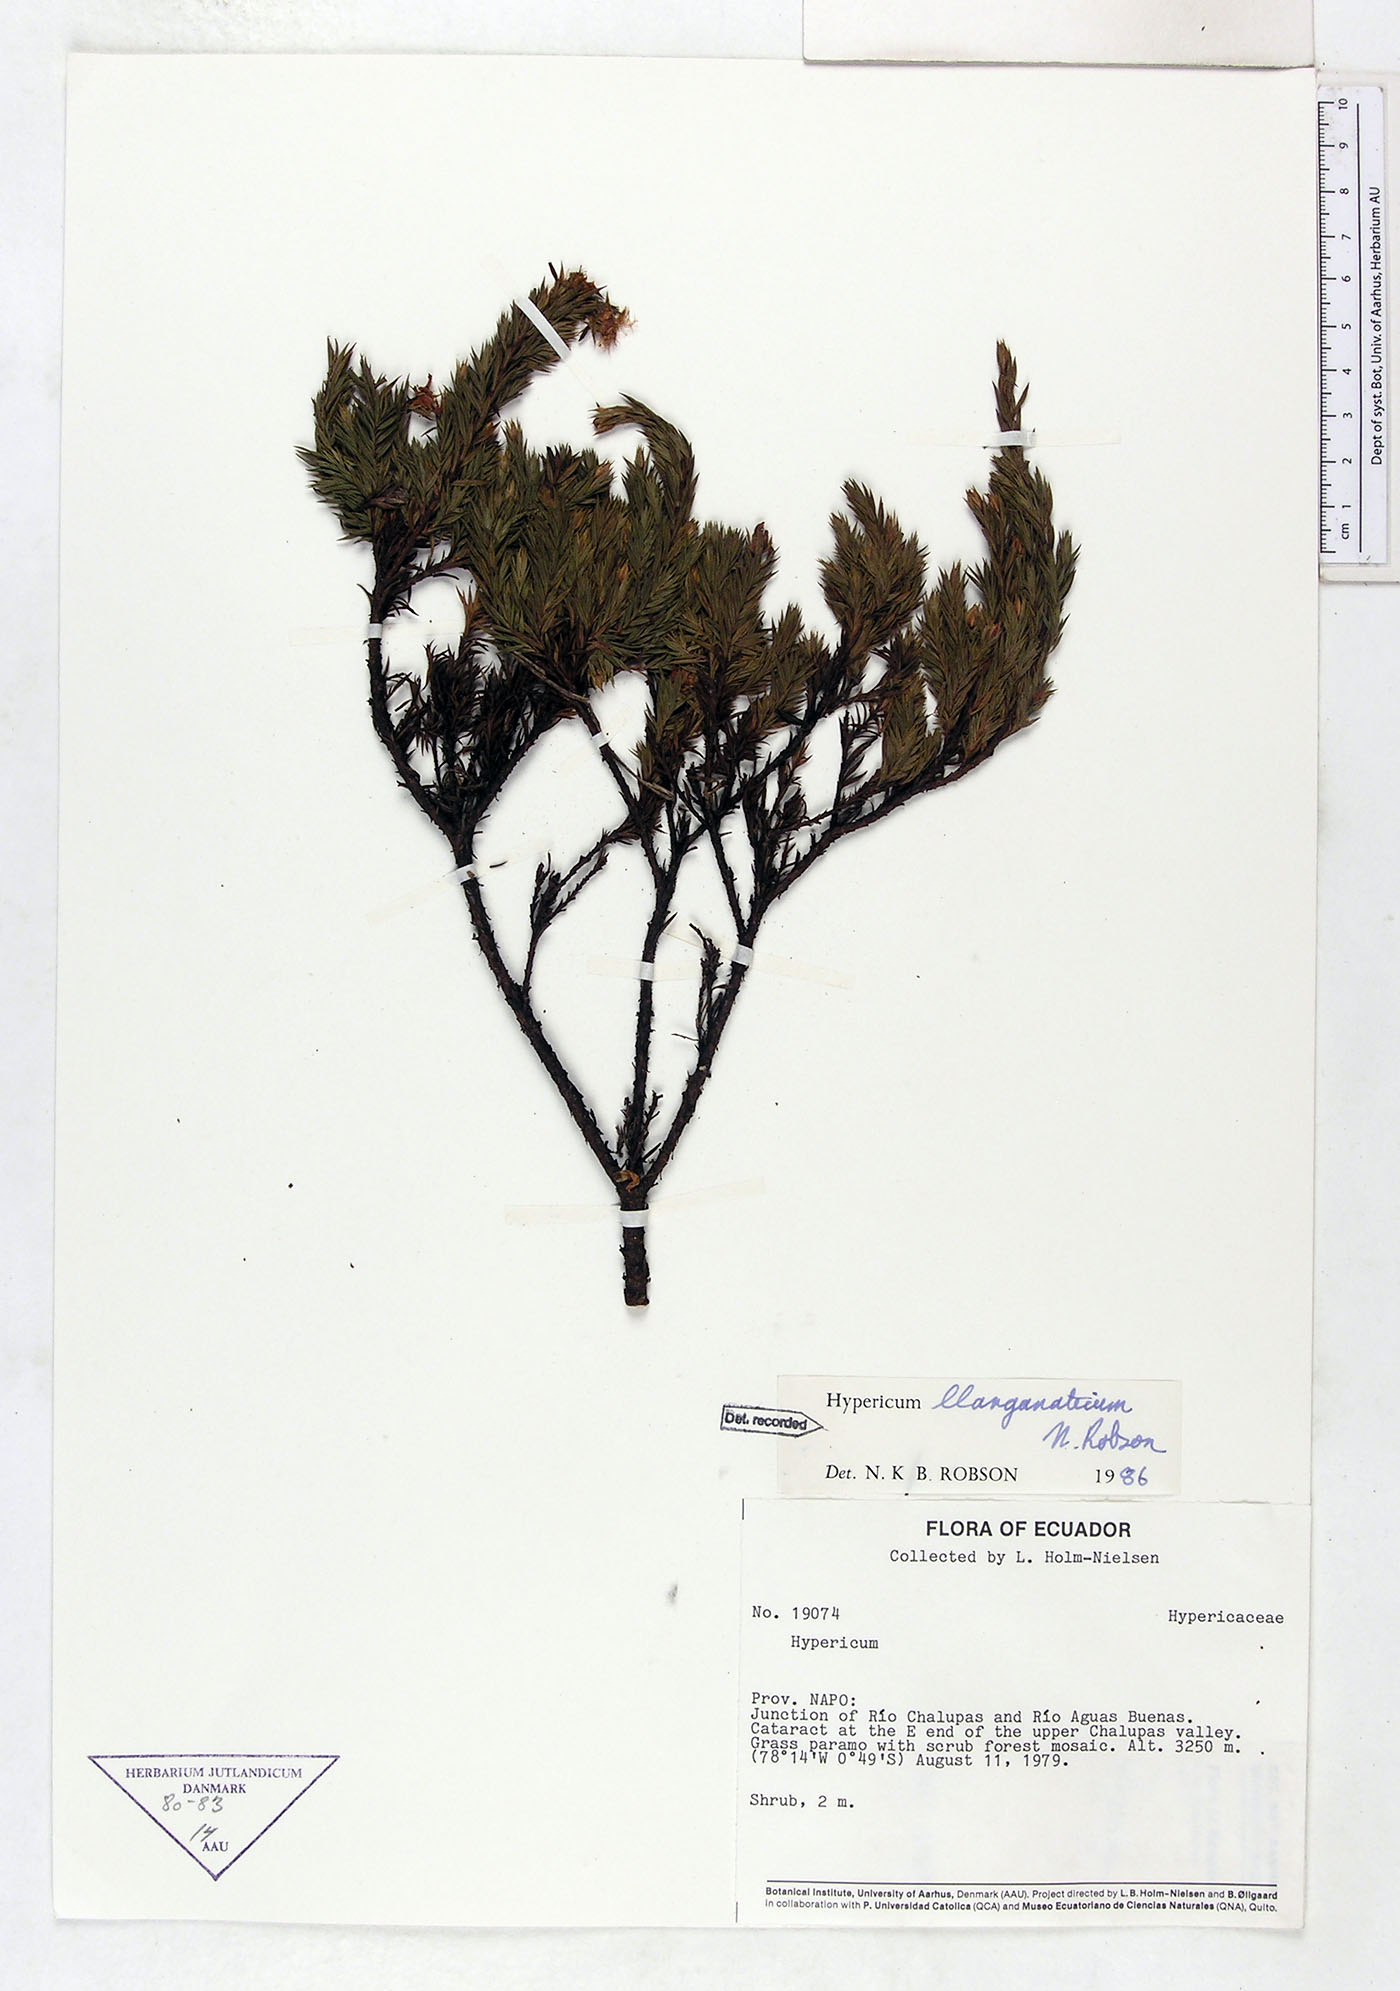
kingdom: Plantae
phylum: Tracheophyta
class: Magnoliopsida
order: Malpighiales
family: Hypericaceae
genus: Hypericum
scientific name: Hypericum llanganaticum
